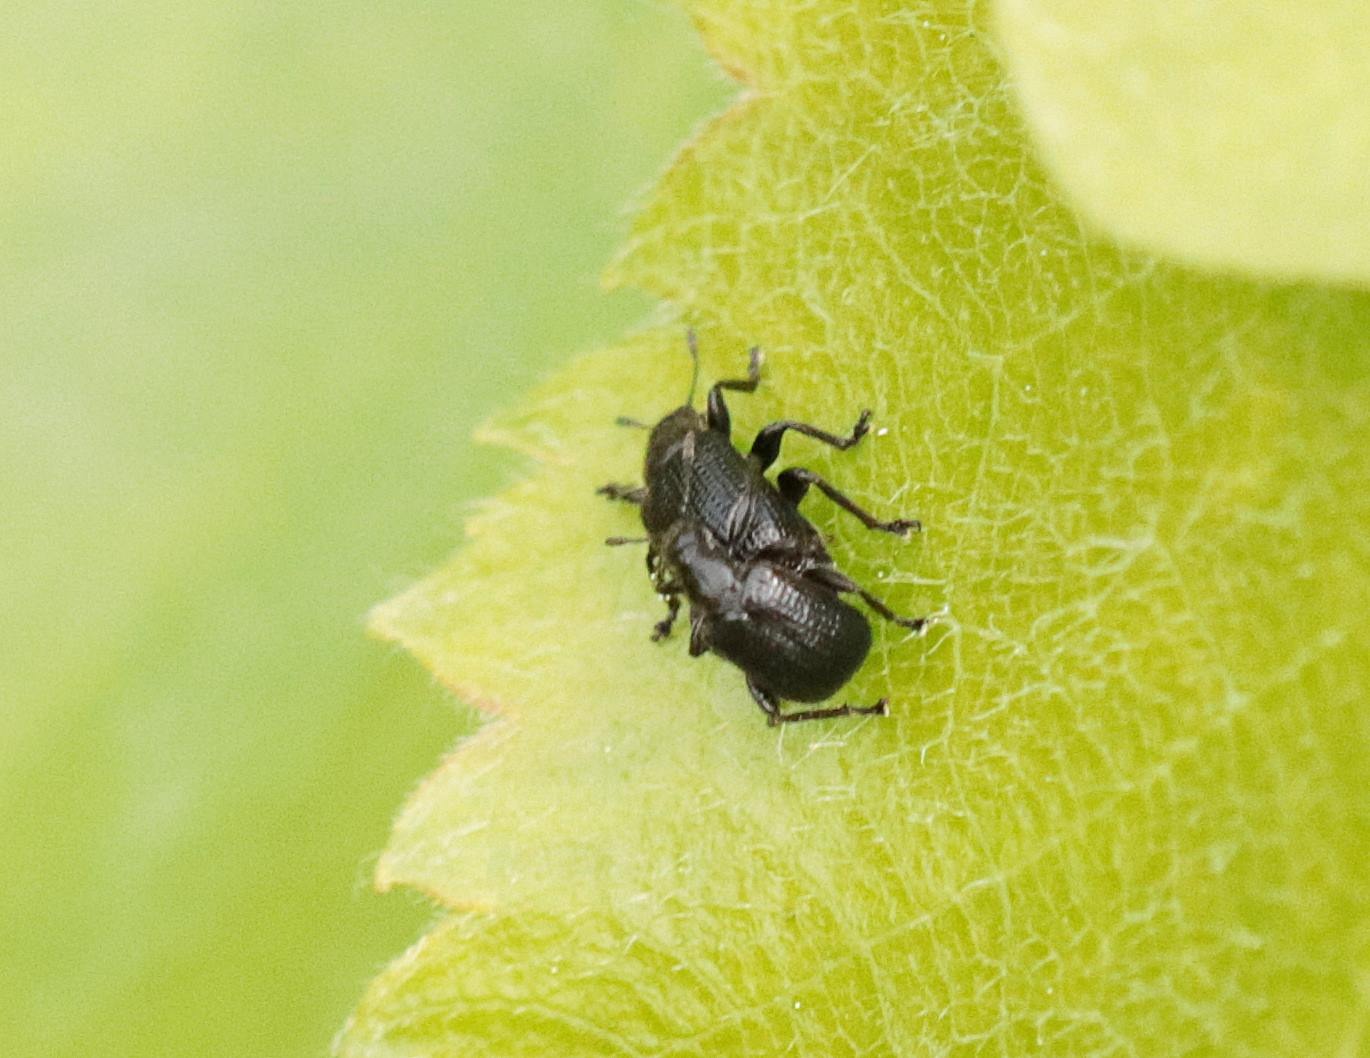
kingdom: Animalia
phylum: Arthropoda
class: Insecta
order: Coleoptera
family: Attelabidae
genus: Byctiscus
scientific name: Byctiscus betulae
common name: Birkebladruller
